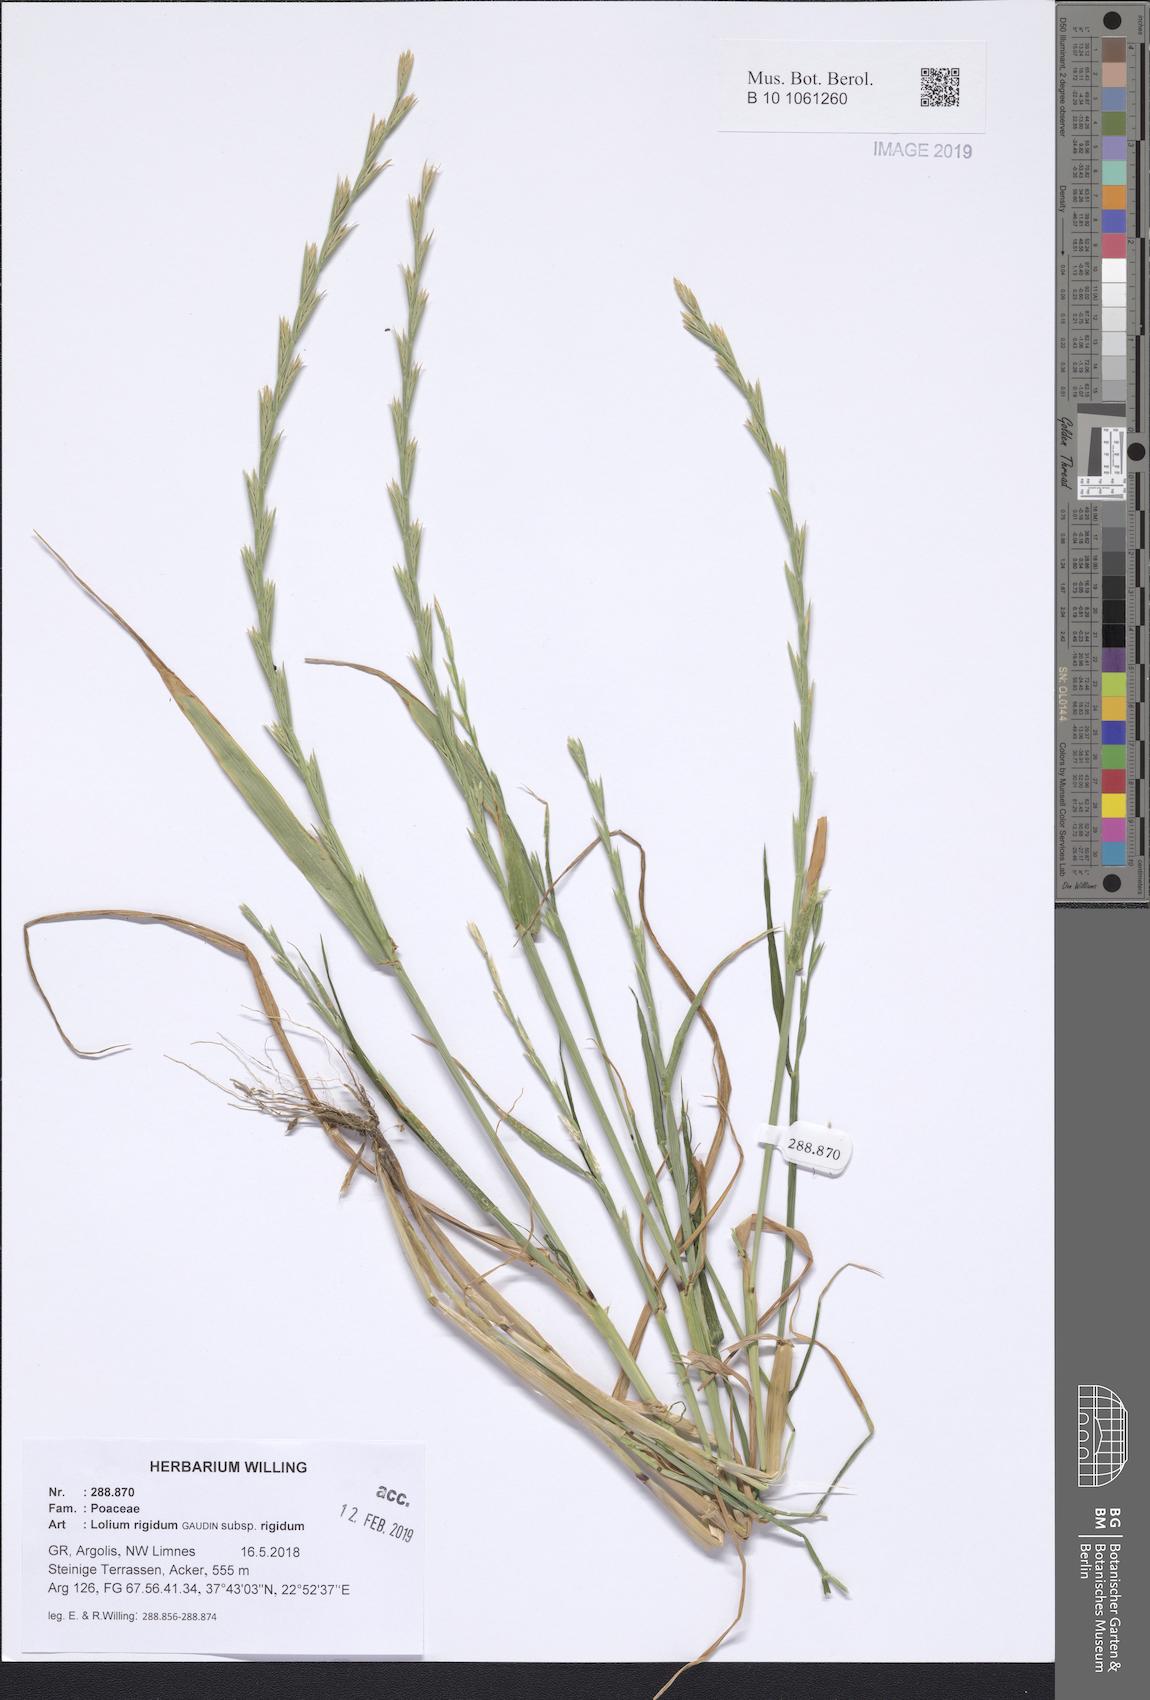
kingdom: Plantae
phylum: Tracheophyta
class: Liliopsida
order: Poales
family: Poaceae
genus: Lolium
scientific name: Lolium rigidum
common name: Wimmera ryegrass
